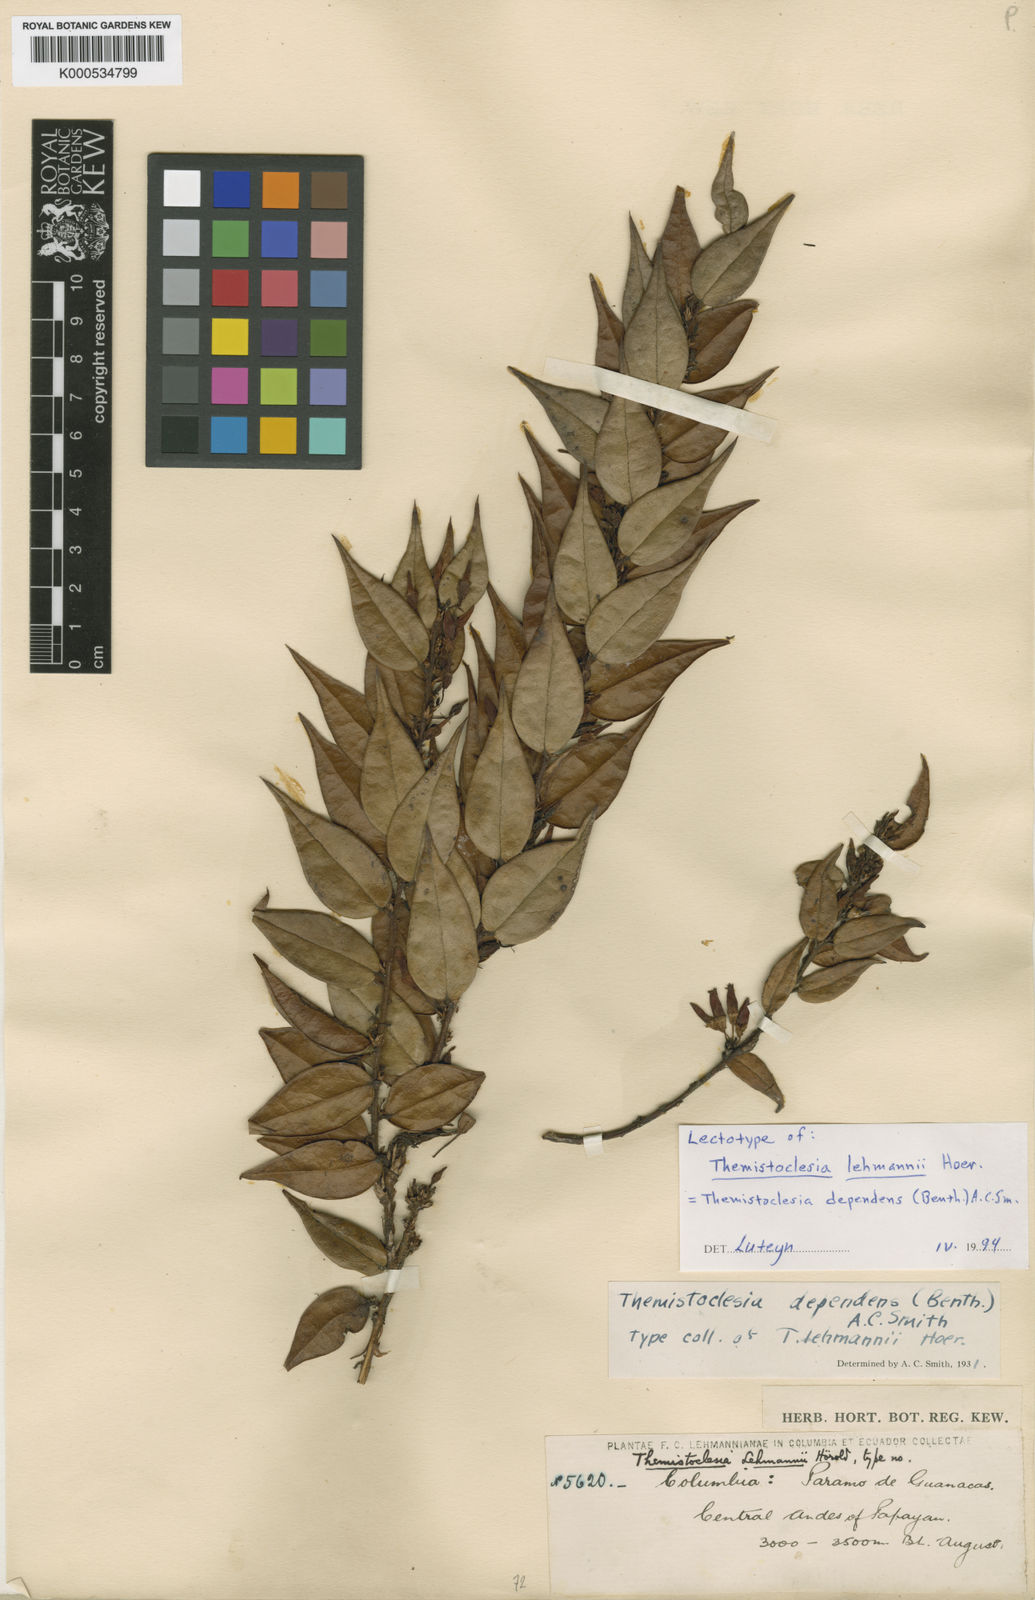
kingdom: Plantae
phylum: Tracheophyta
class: Magnoliopsida
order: Ericales
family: Ericaceae
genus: Themistoclesia
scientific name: Themistoclesia dependens
